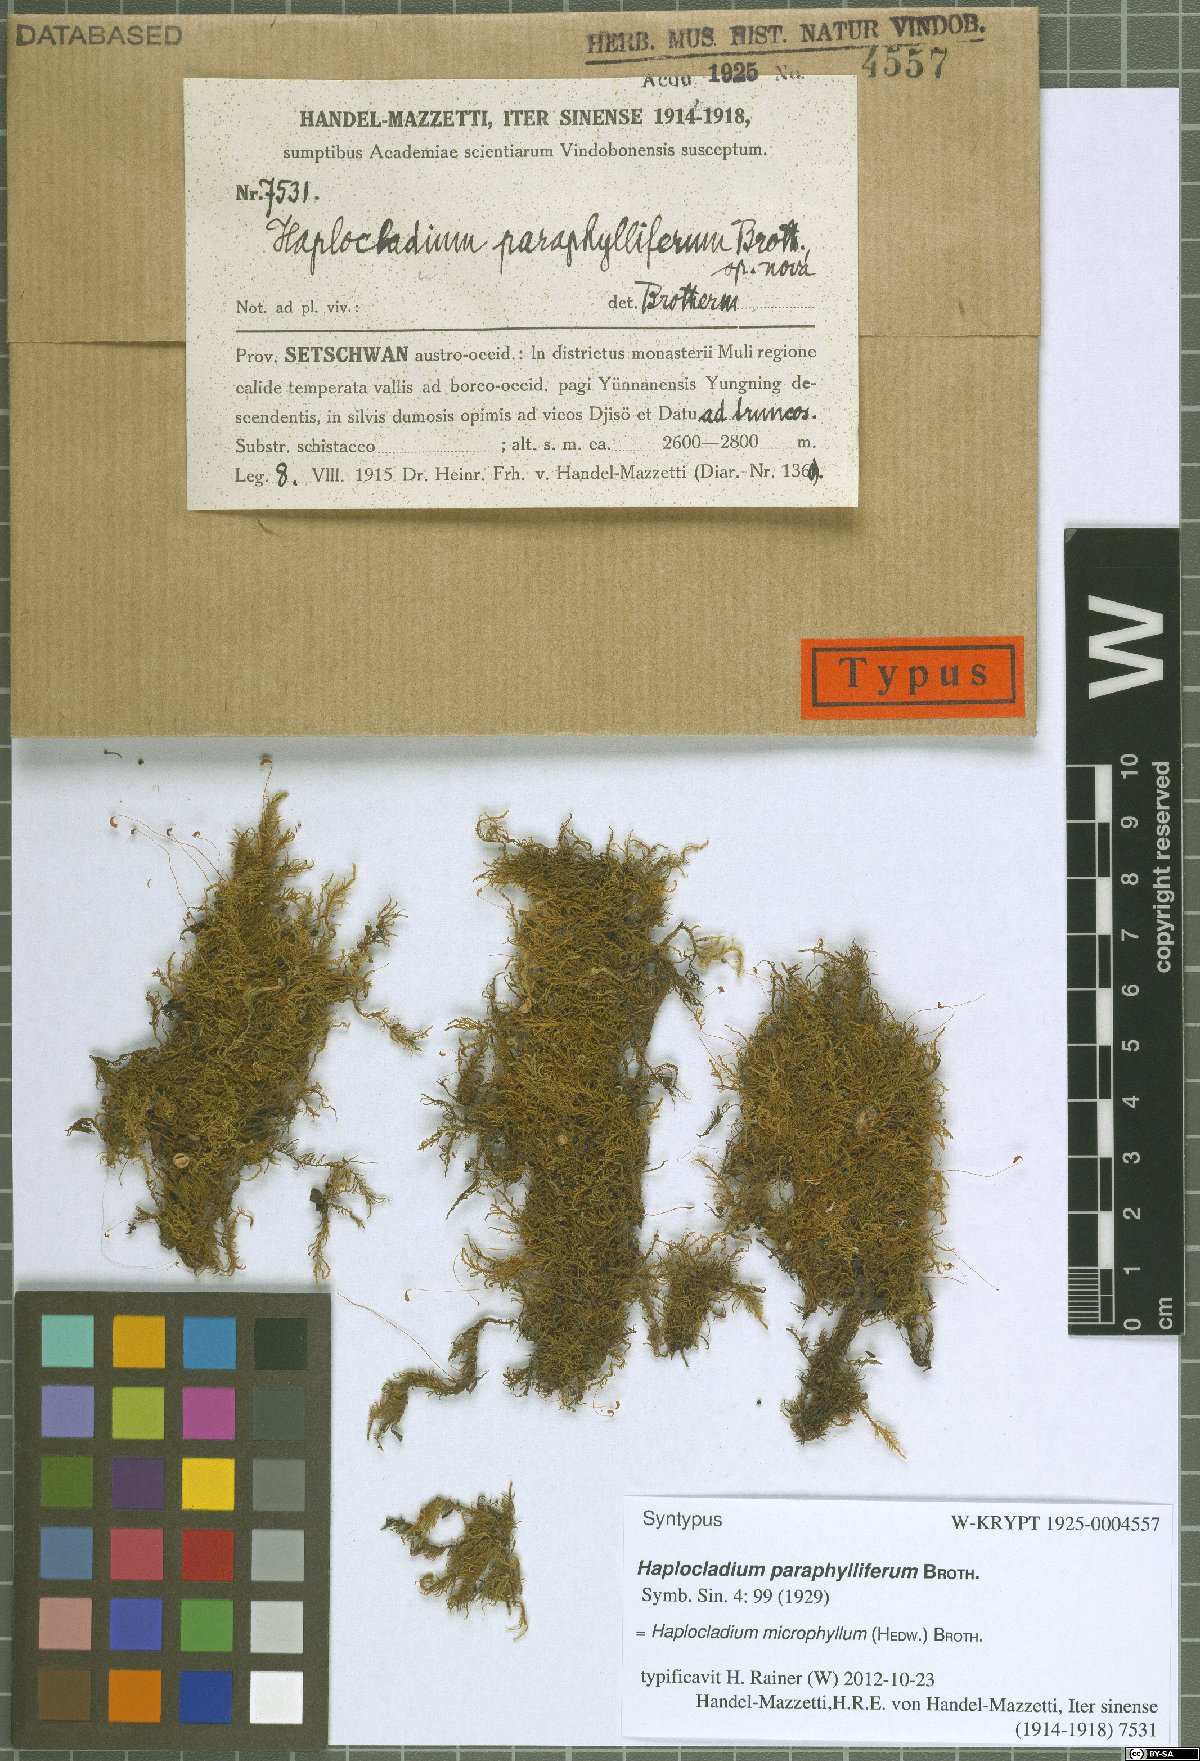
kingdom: Plantae
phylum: Bryophyta
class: Bryopsida
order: Hypnales
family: Leskeaceae
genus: Haplocladium
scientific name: Haplocladium microphyllum
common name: Tiny-leaved haplocladium
